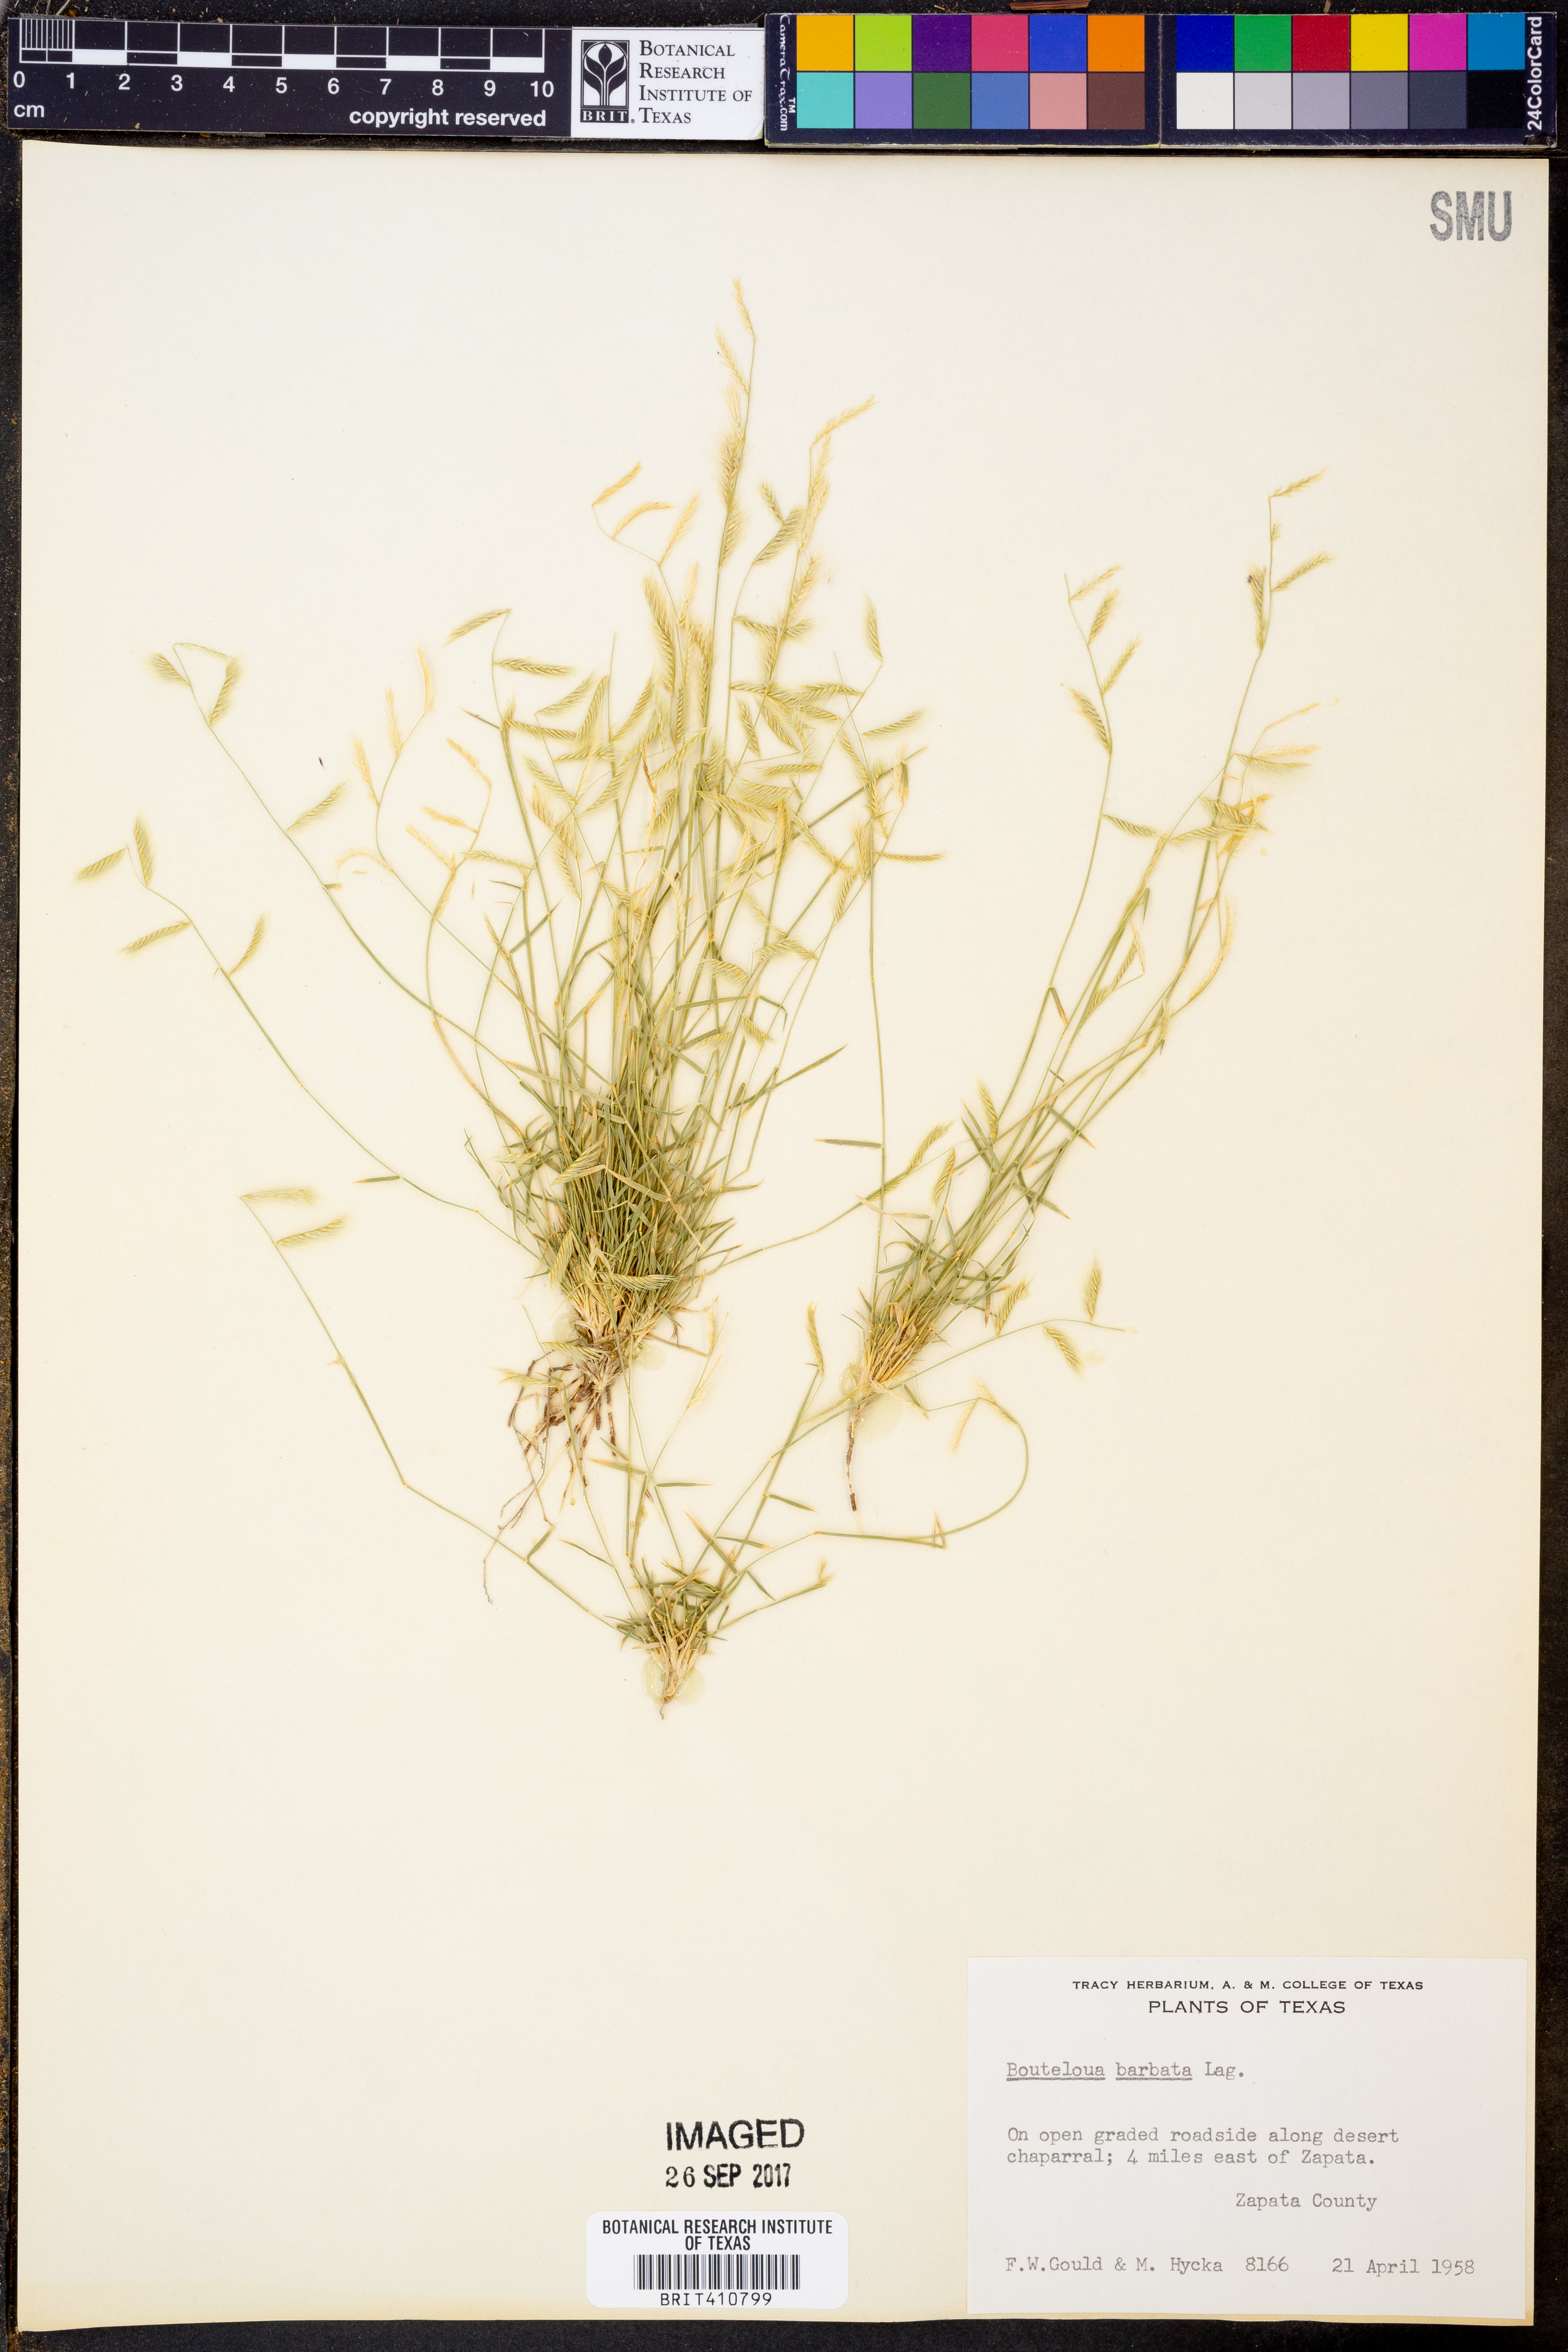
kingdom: Plantae
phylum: Tracheophyta
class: Liliopsida
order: Poales
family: Poaceae
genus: Bouteloua
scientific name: Bouteloua barbata
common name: Six-weeks grama
